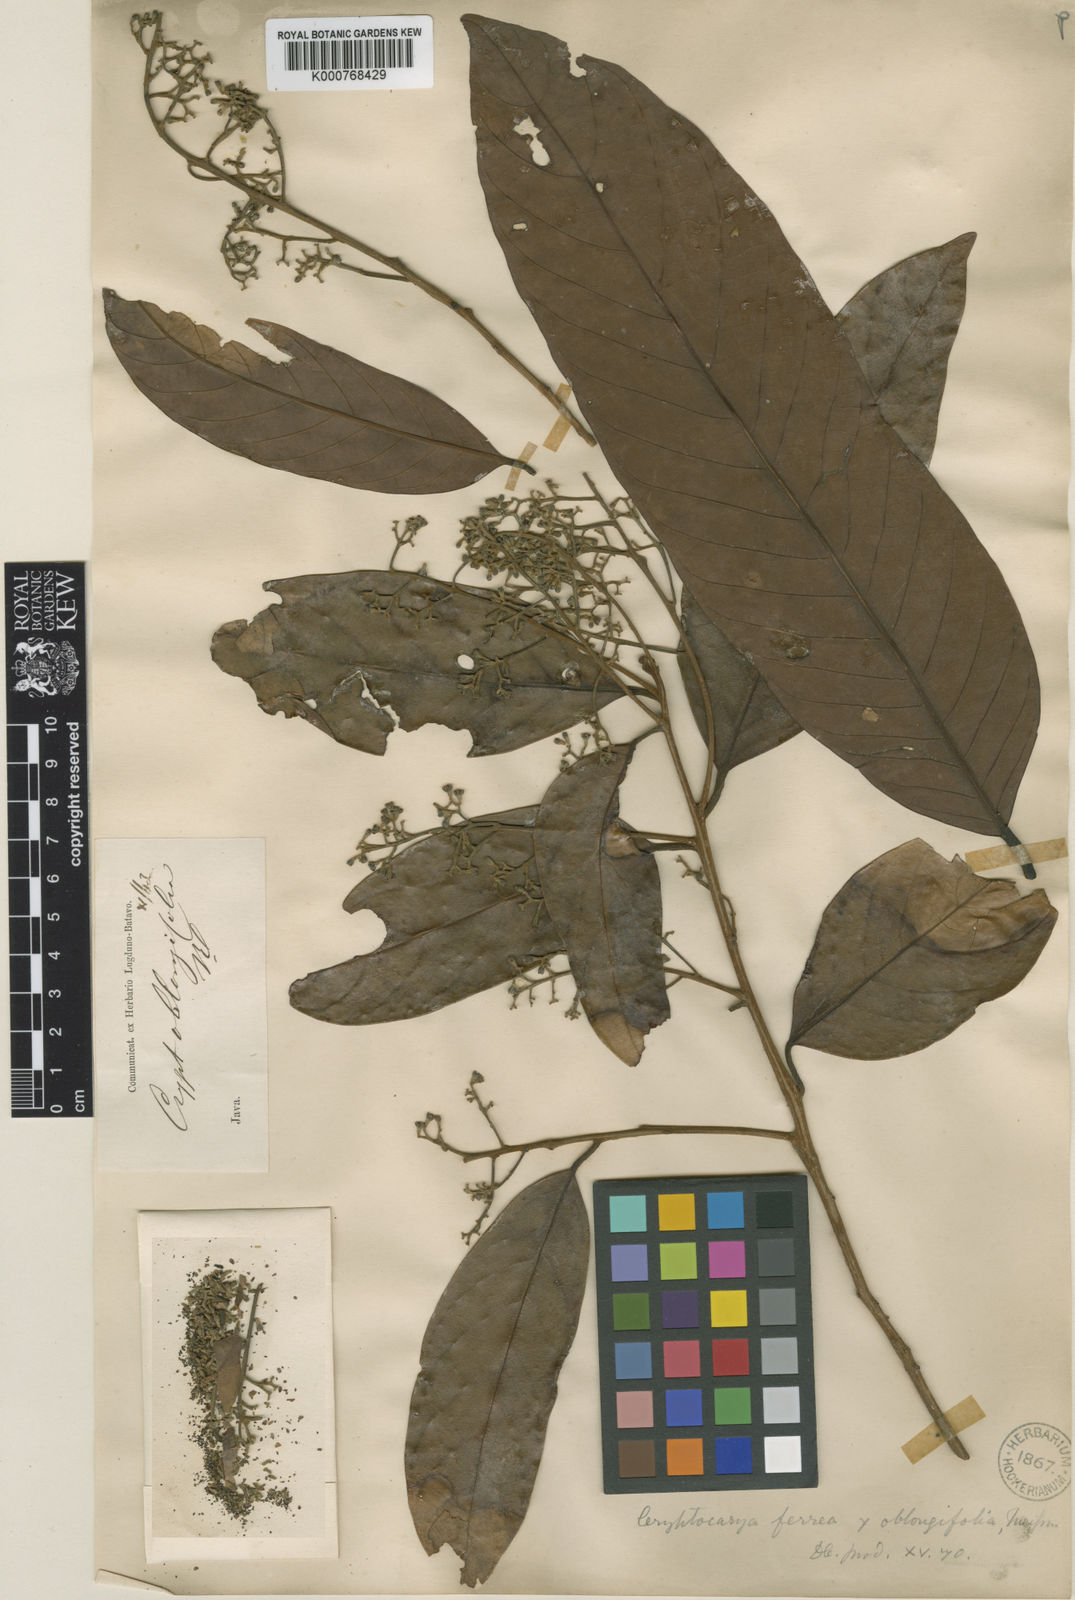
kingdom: Plantae
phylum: Tracheophyta
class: Magnoliopsida
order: Laurales
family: Lauraceae
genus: Cryptocarya
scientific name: Cryptocarya ferrea
